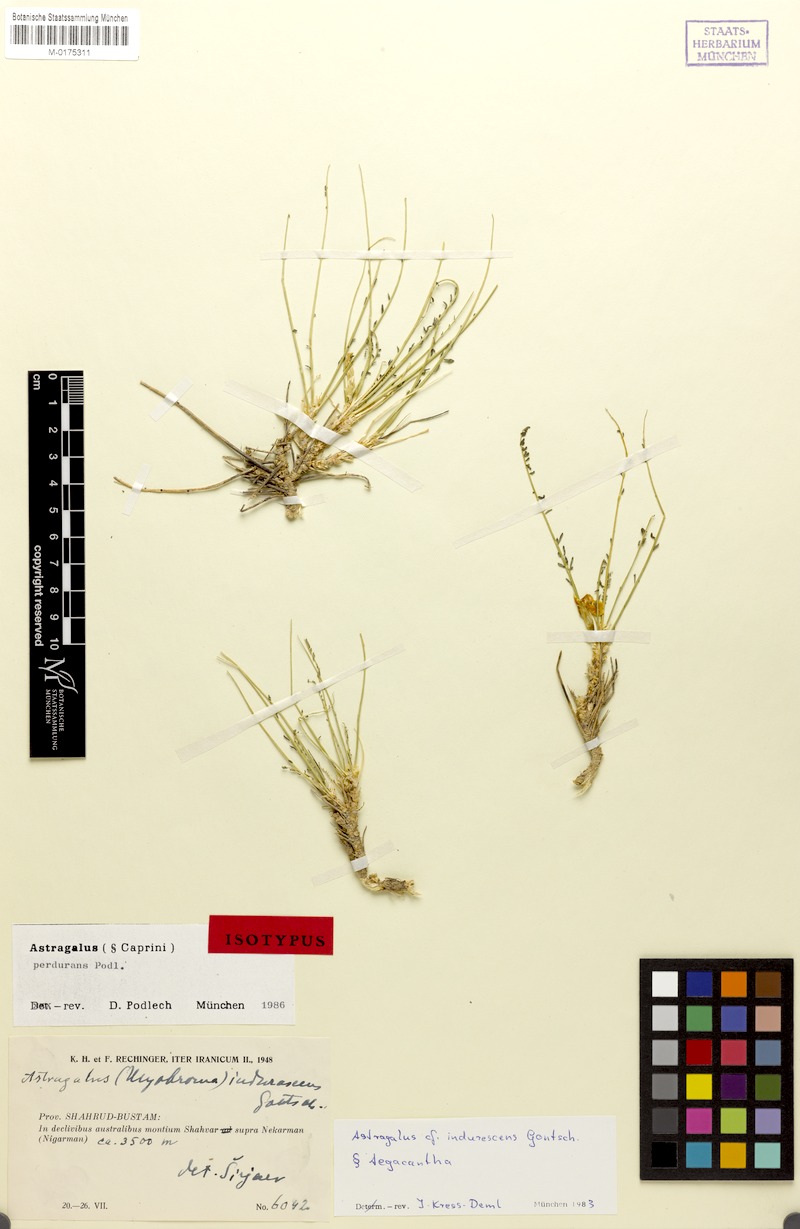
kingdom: Plantae
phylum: Tracheophyta
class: Magnoliopsida
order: Fabales
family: Fabaceae
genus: Astragalus
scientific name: Astragalus perdurans
